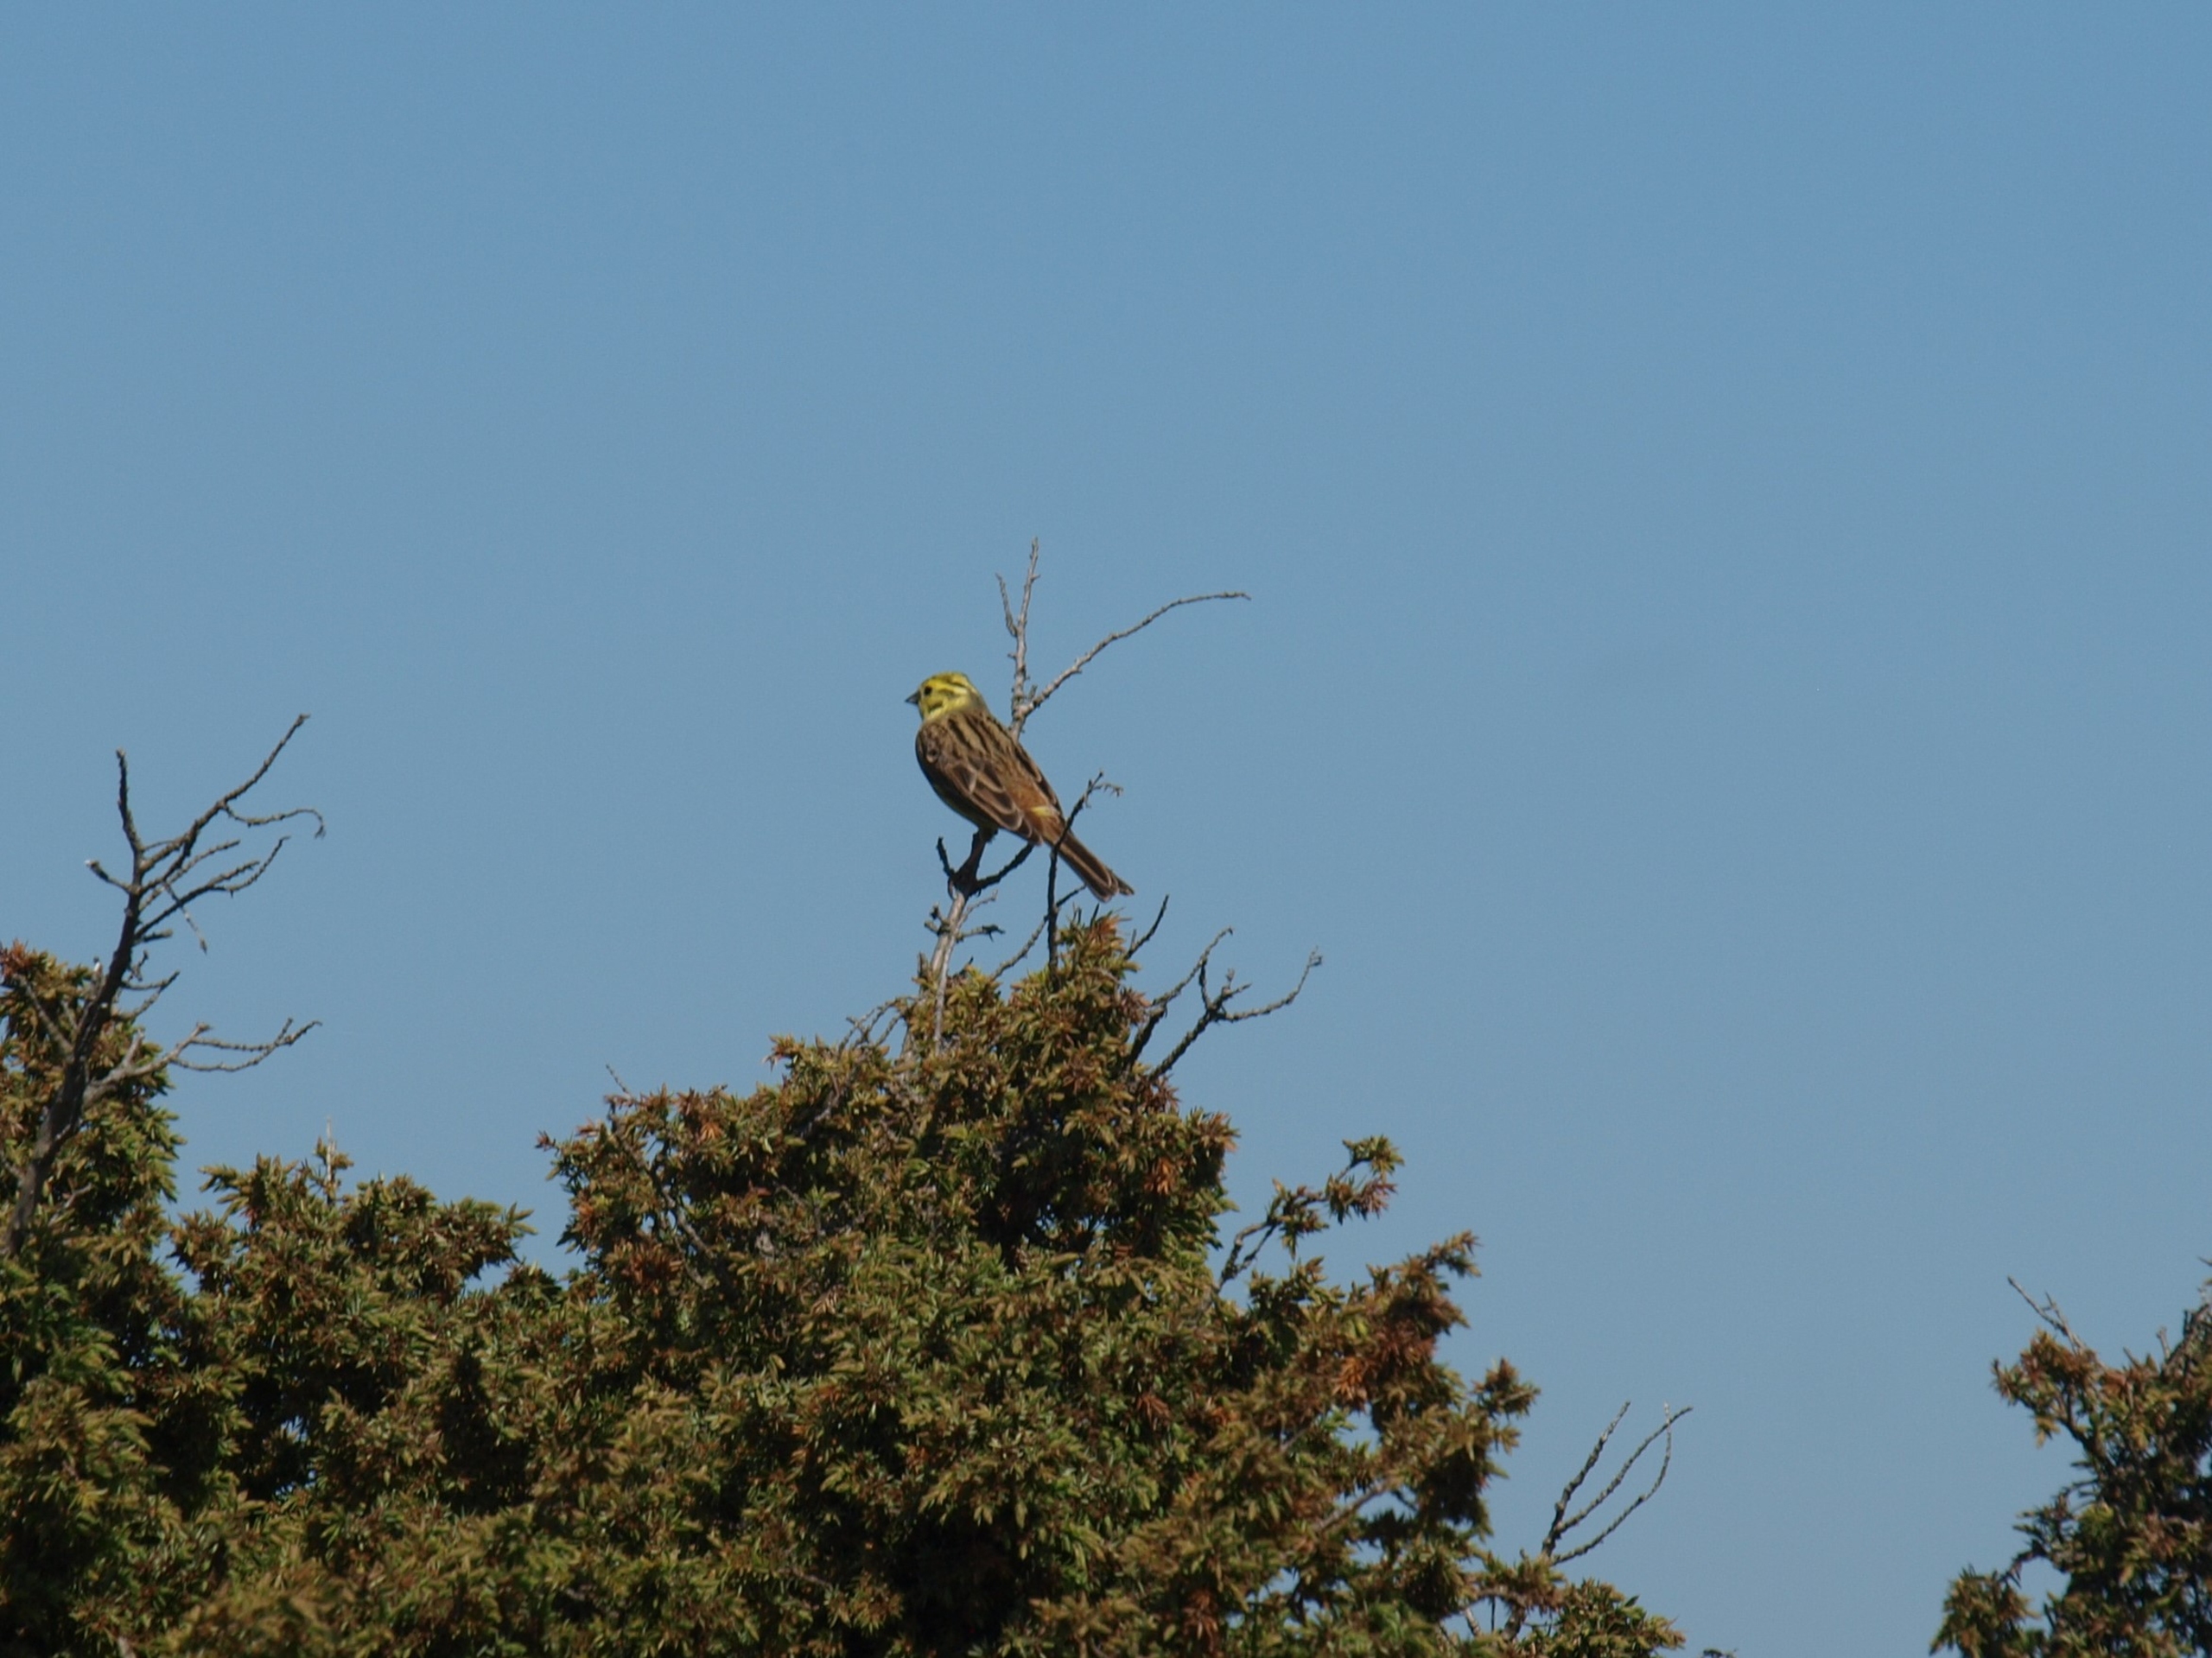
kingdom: Animalia
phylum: Chordata
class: Aves
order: Passeriformes
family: Emberizidae
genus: Emberiza
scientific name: Emberiza citrinella
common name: Gulspurv
